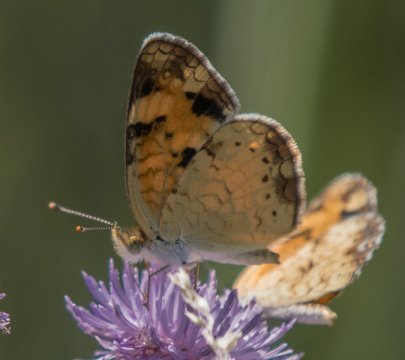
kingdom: Animalia
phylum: Arthropoda
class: Insecta
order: Lepidoptera
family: Nymphalidae
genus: Phyciodes
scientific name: Phyciodes tharos
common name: Northern Crescent
